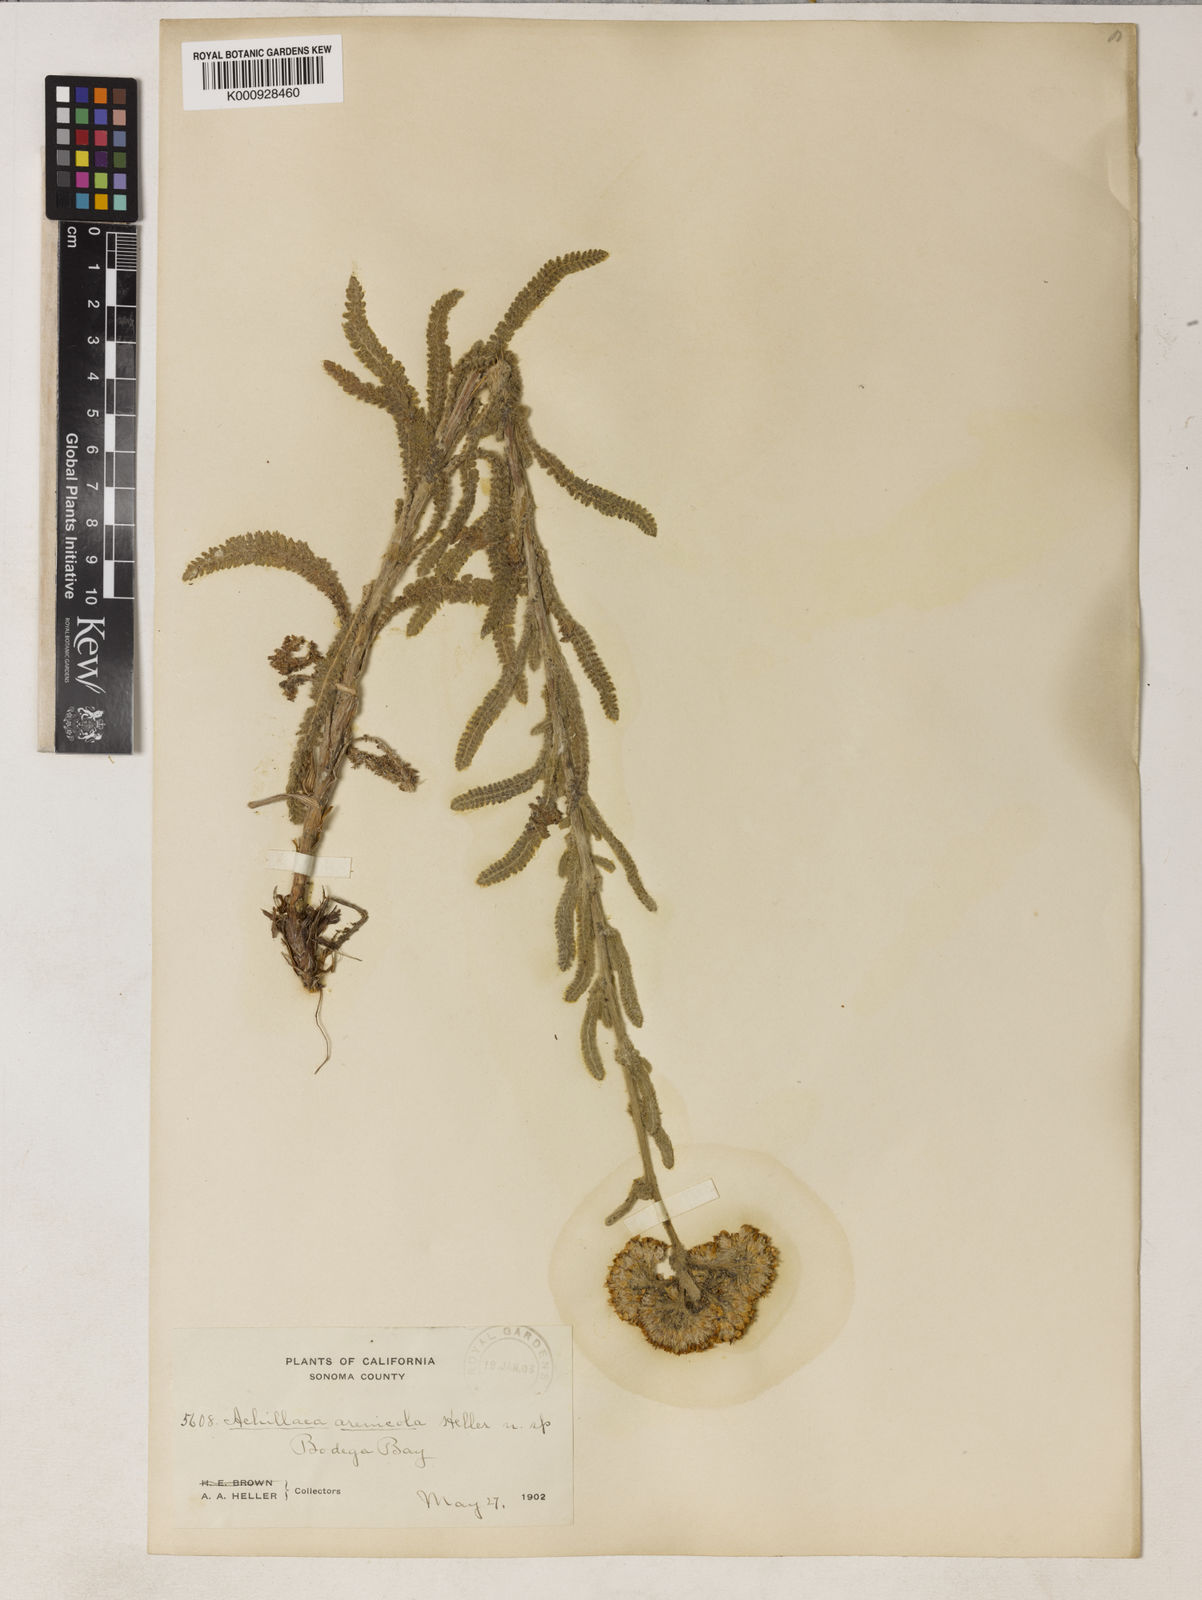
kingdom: Plantae
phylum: Tracheophyta
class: Magnoliopsida
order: Asterales
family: Asteraceae
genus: Achillea
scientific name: Achillea millefolium
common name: Yarrow
